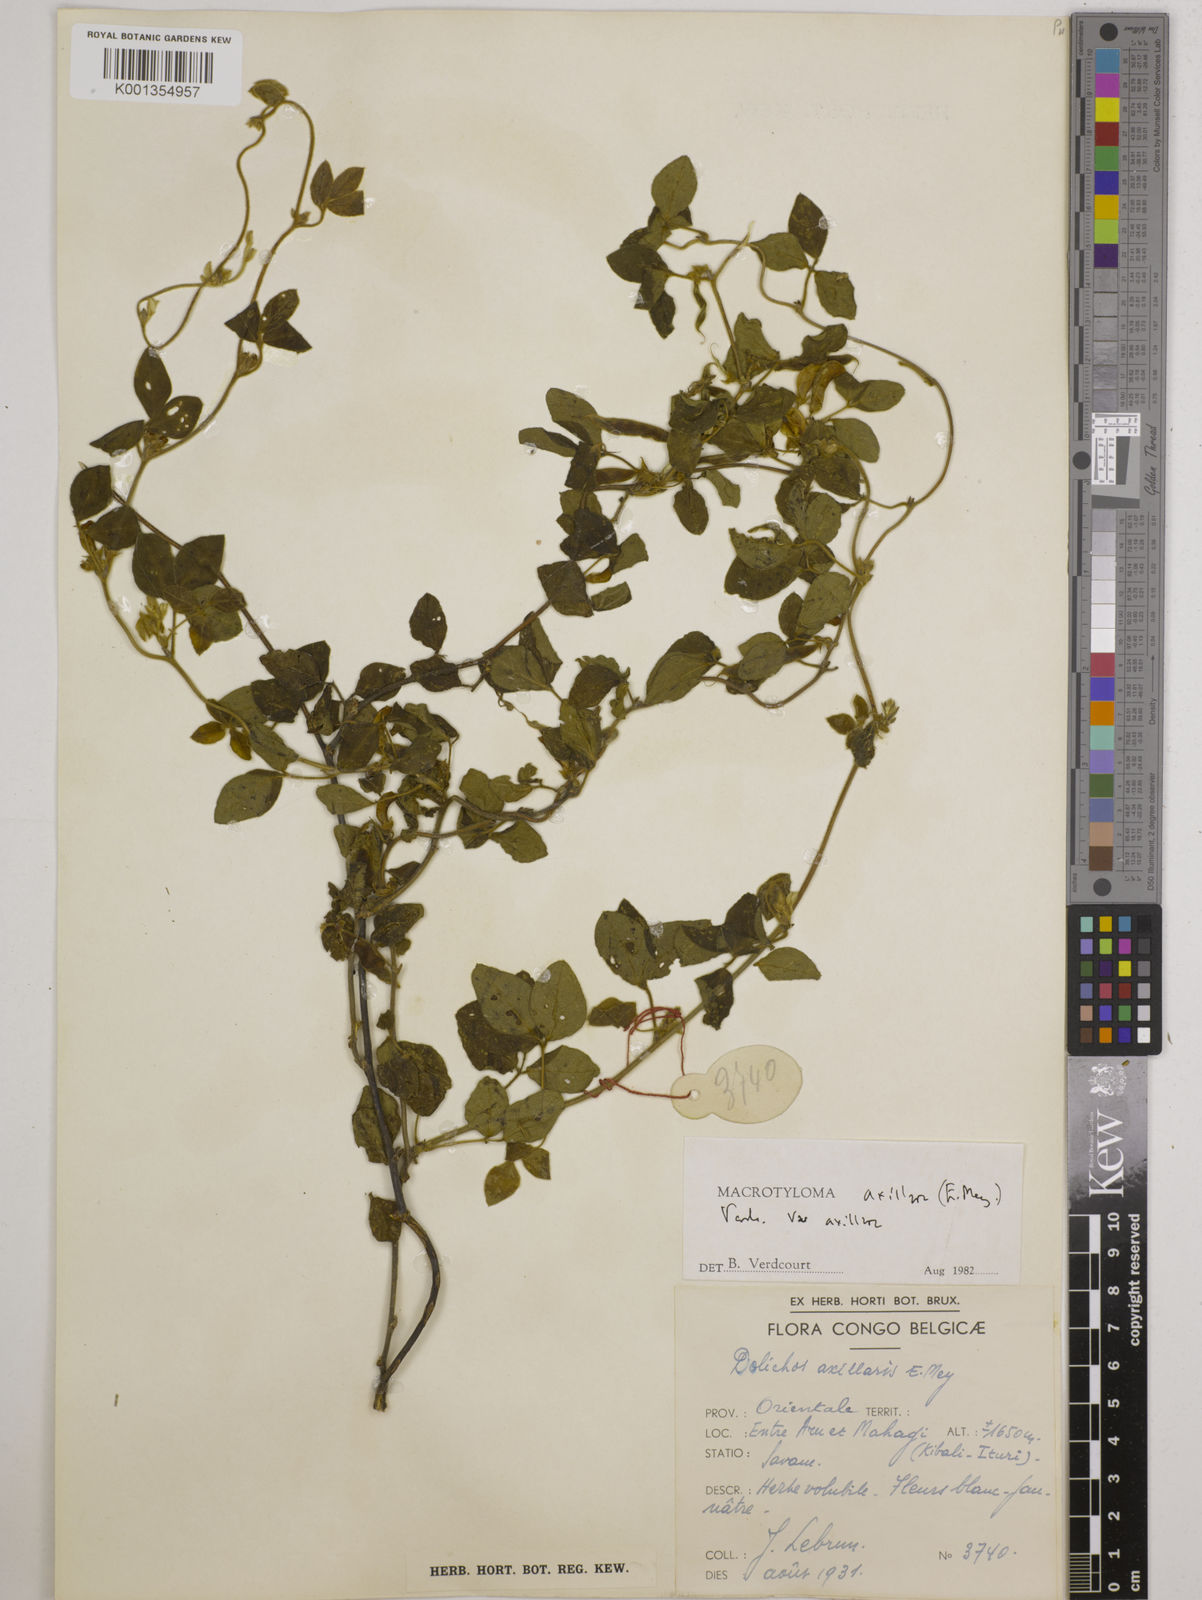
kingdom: Plantae
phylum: Tracheophyta
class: Magnoliopsida
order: Fabales
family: Fabaceae
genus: Macrotyloma
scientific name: Macrotyloma axillare
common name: Perennial horsegram
